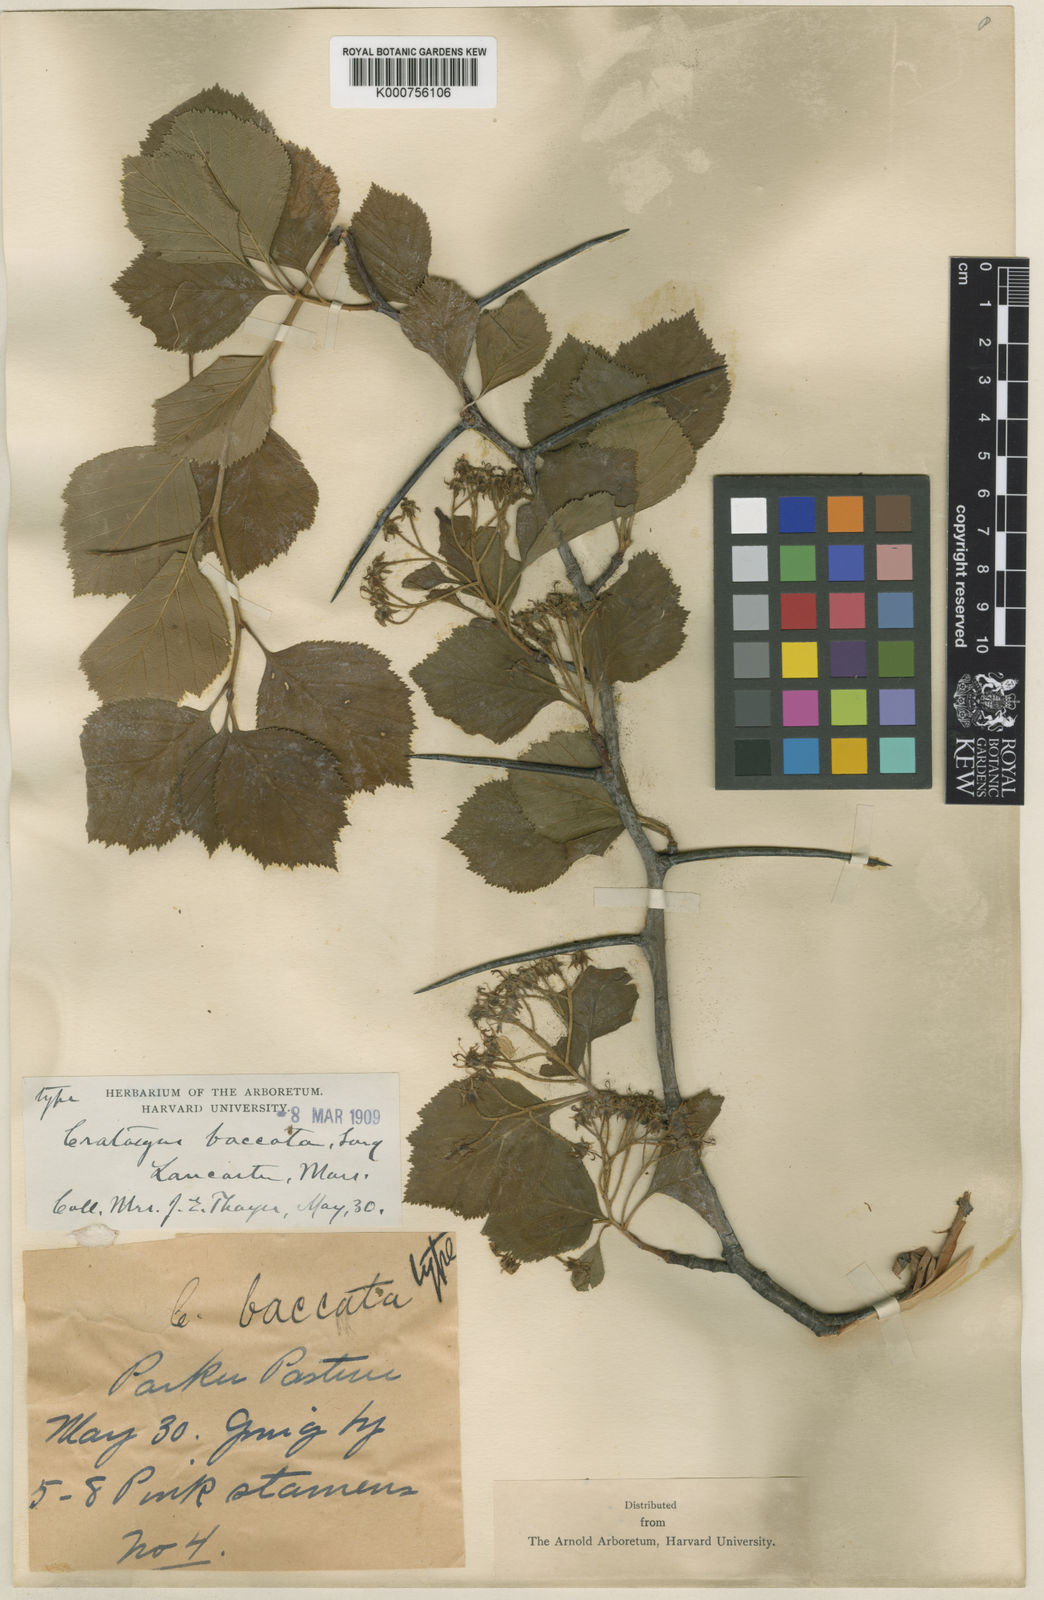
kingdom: Plantae
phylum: Tracheophyta
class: Magnoliopsida
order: Rosales
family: Rosaceae
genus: Crataegus
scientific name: Crataegus baccata
